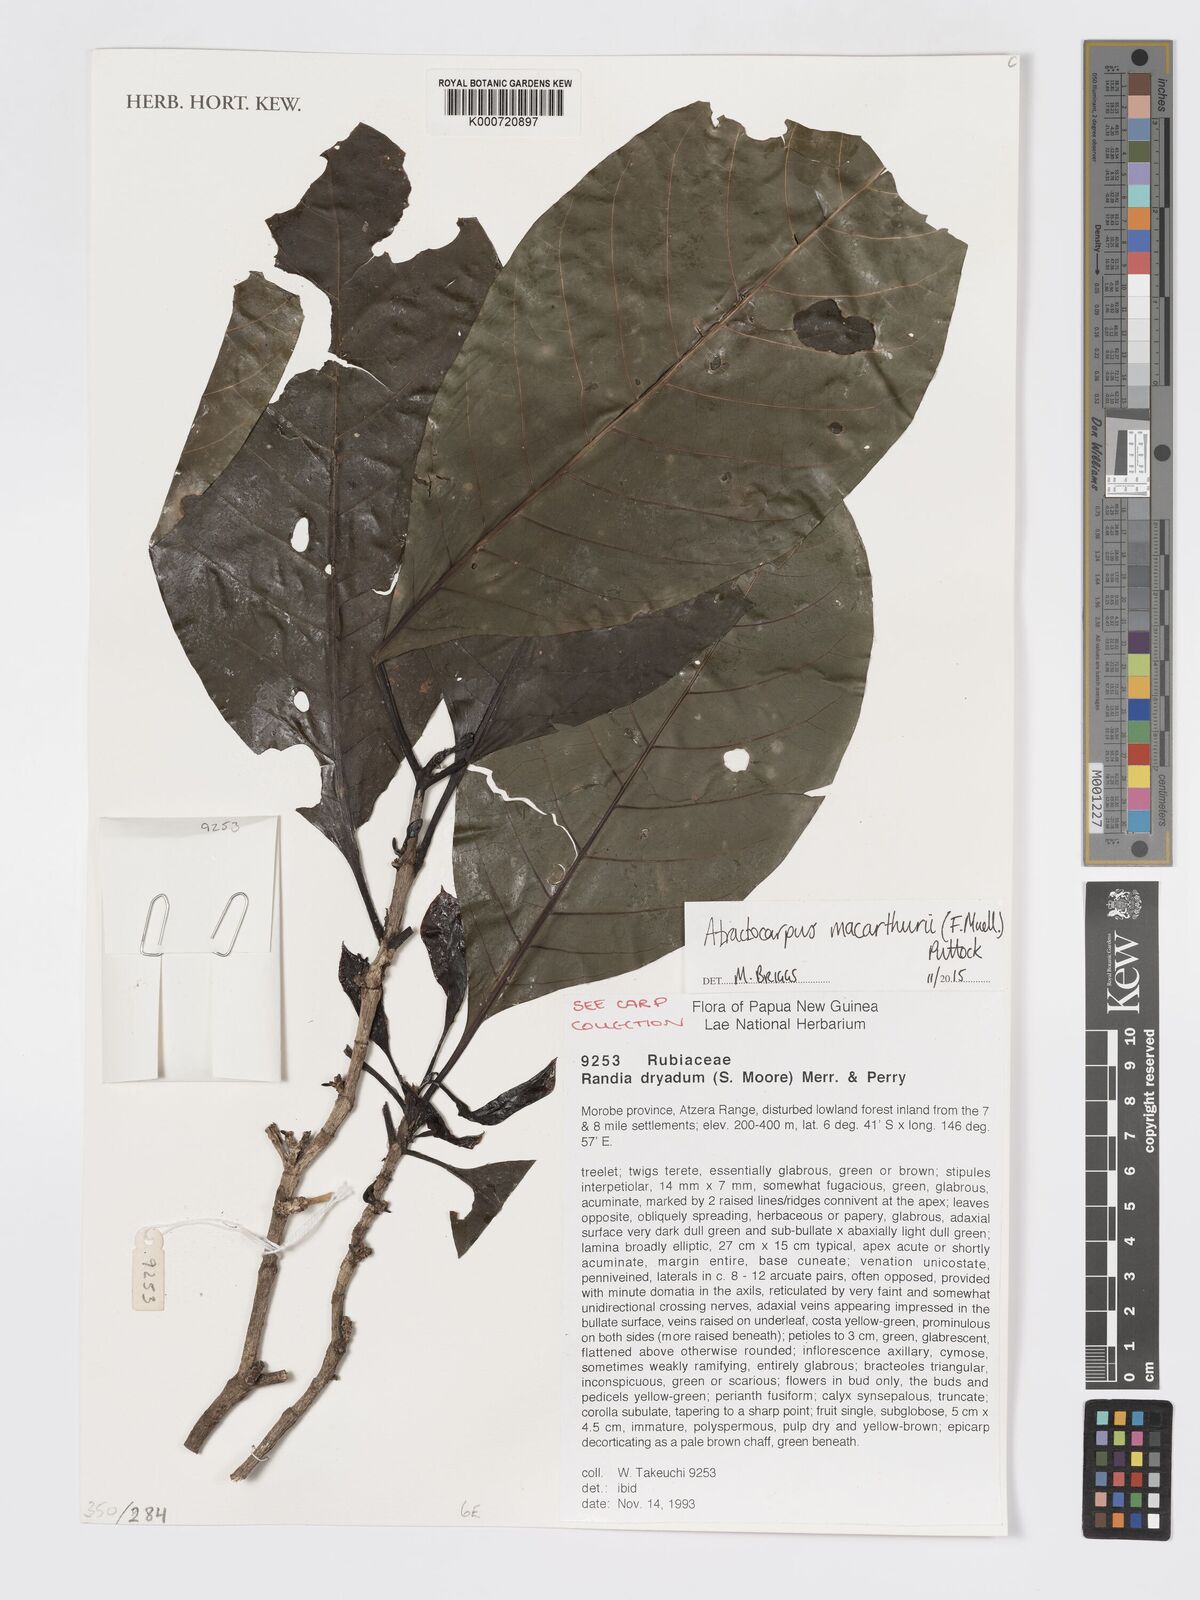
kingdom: Plantae
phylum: Tracheophyta
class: Magnoliopsida
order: Gentianales
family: Rubiaceae
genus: Atractocarpus
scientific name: Atractocarpus macarthurii
